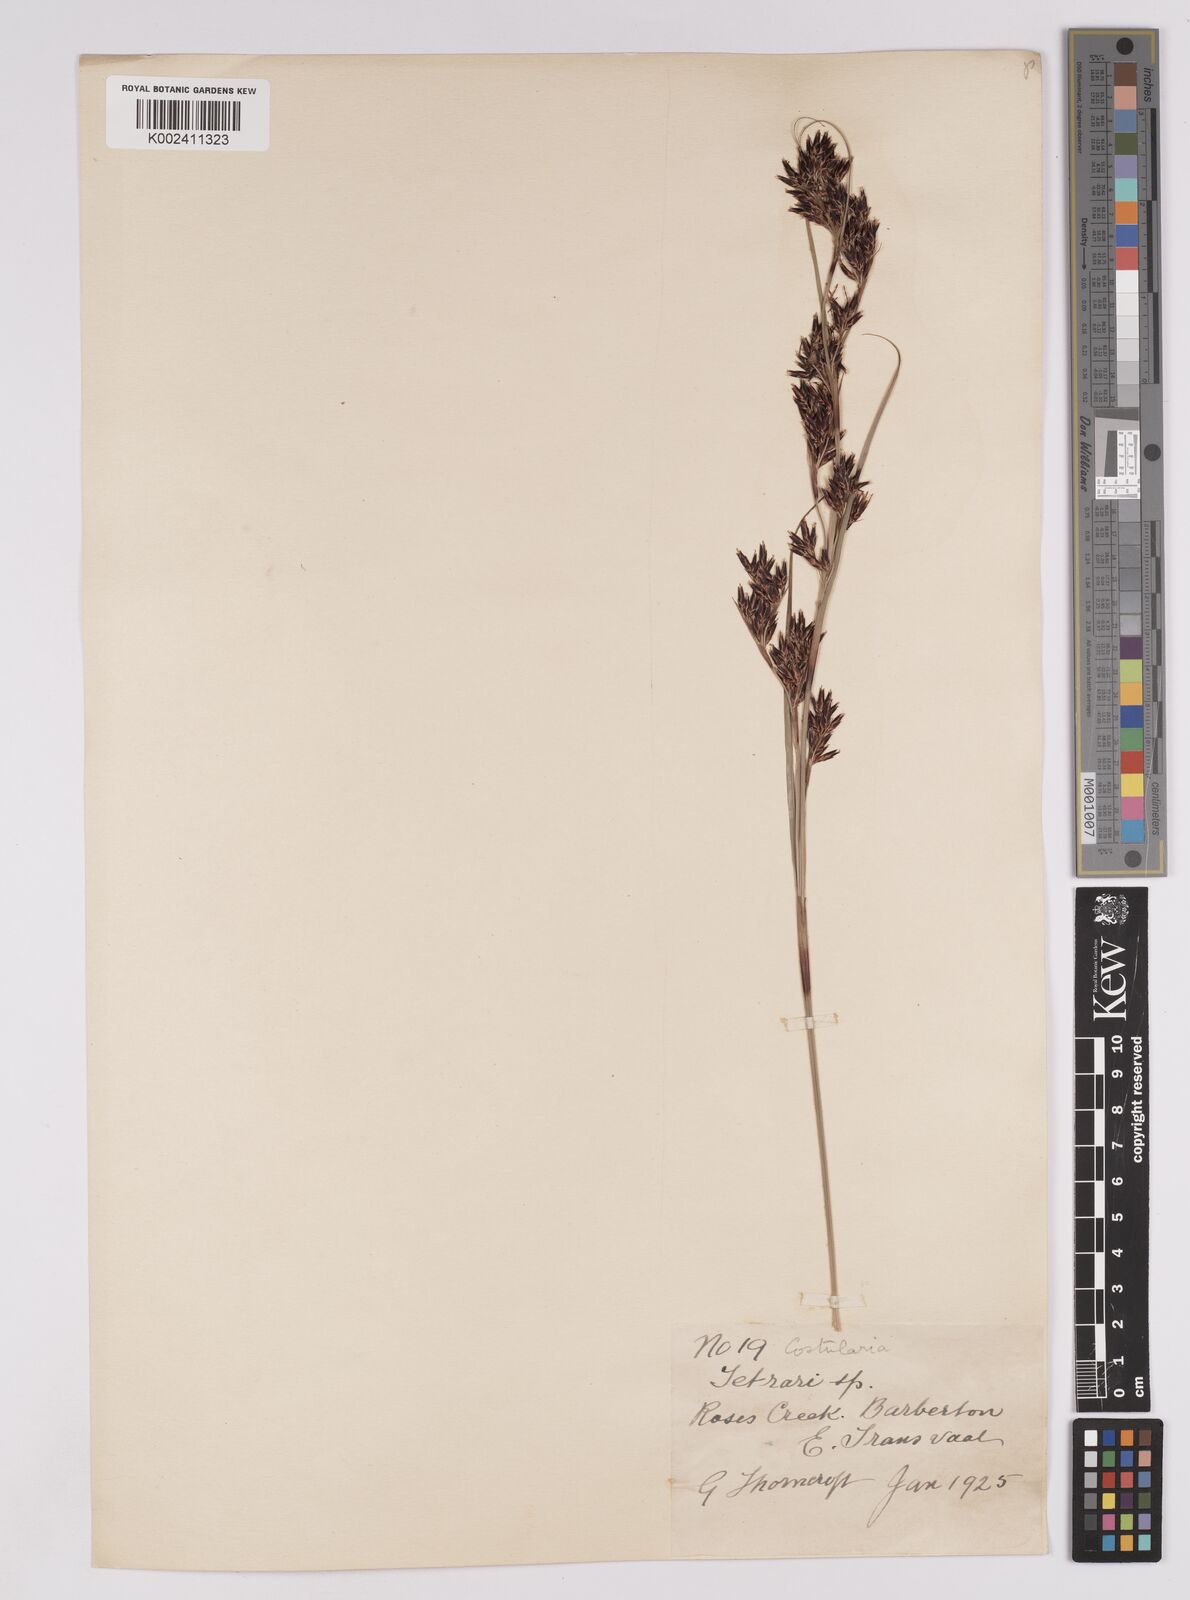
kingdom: Plantae
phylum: Tracheophyta
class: Liliopsida
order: Poales
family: Cyperaceae
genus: Costularia
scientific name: Costularia natalensis
